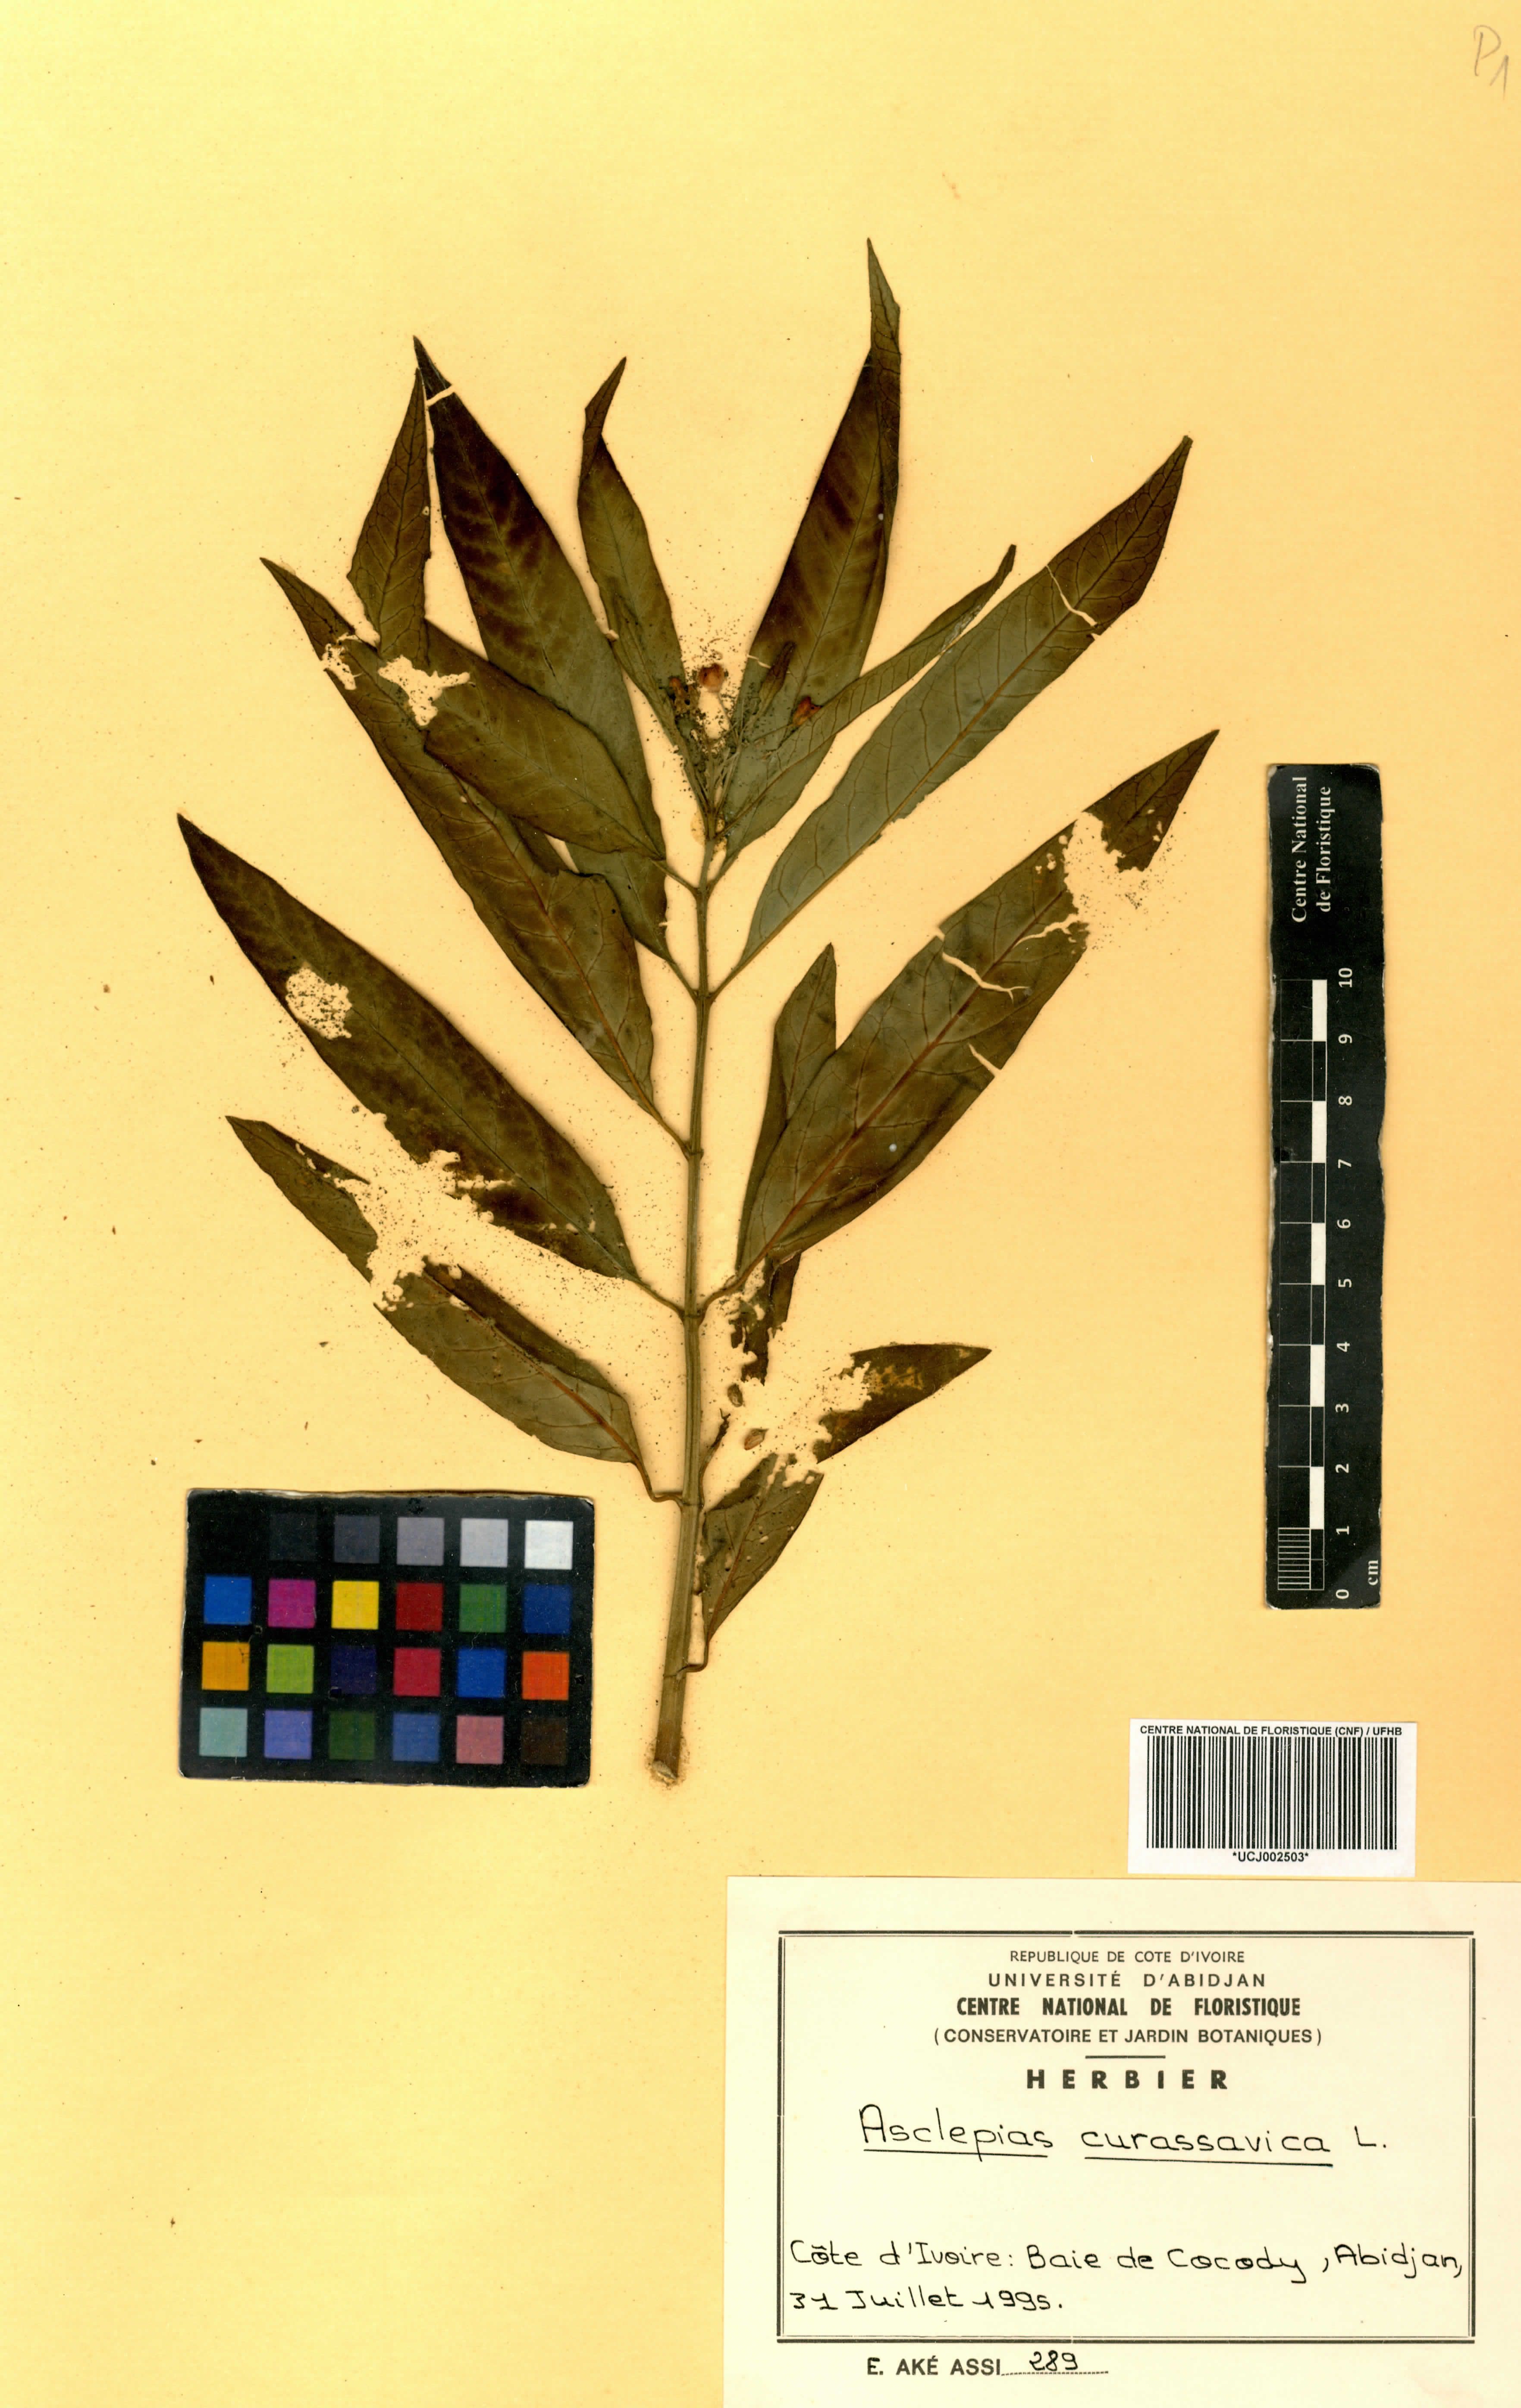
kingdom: Plantae
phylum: Tracheophyta
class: Magnoliopsida
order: Gentianales
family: Apocynaceae
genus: Asclepias
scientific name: Asclepias curassavica
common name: Bloodflower
